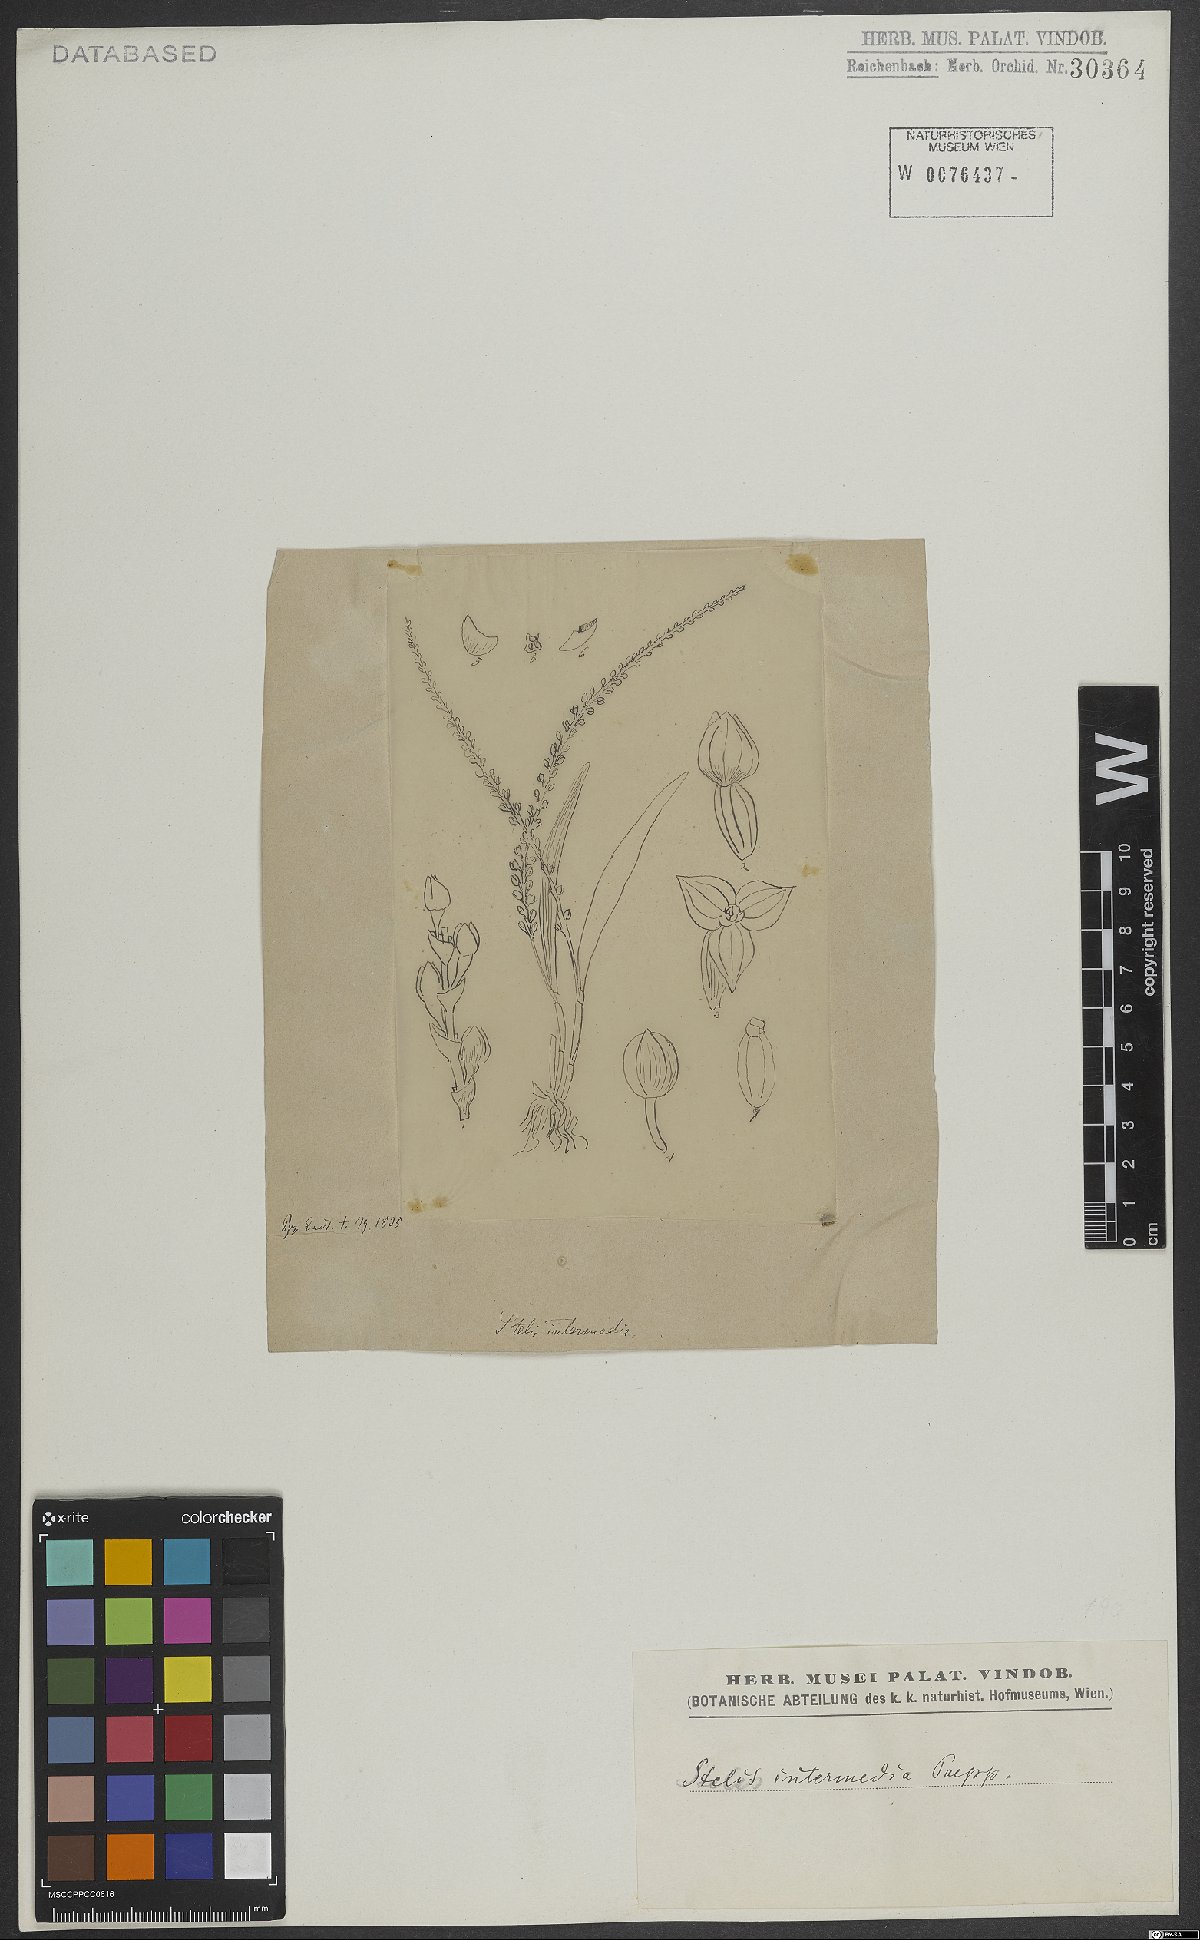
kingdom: Plantae
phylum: Tracheophyta
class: Liliopsida
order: Asparagales
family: Orchidaceae
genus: Stelis
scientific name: Stelis intermedia
